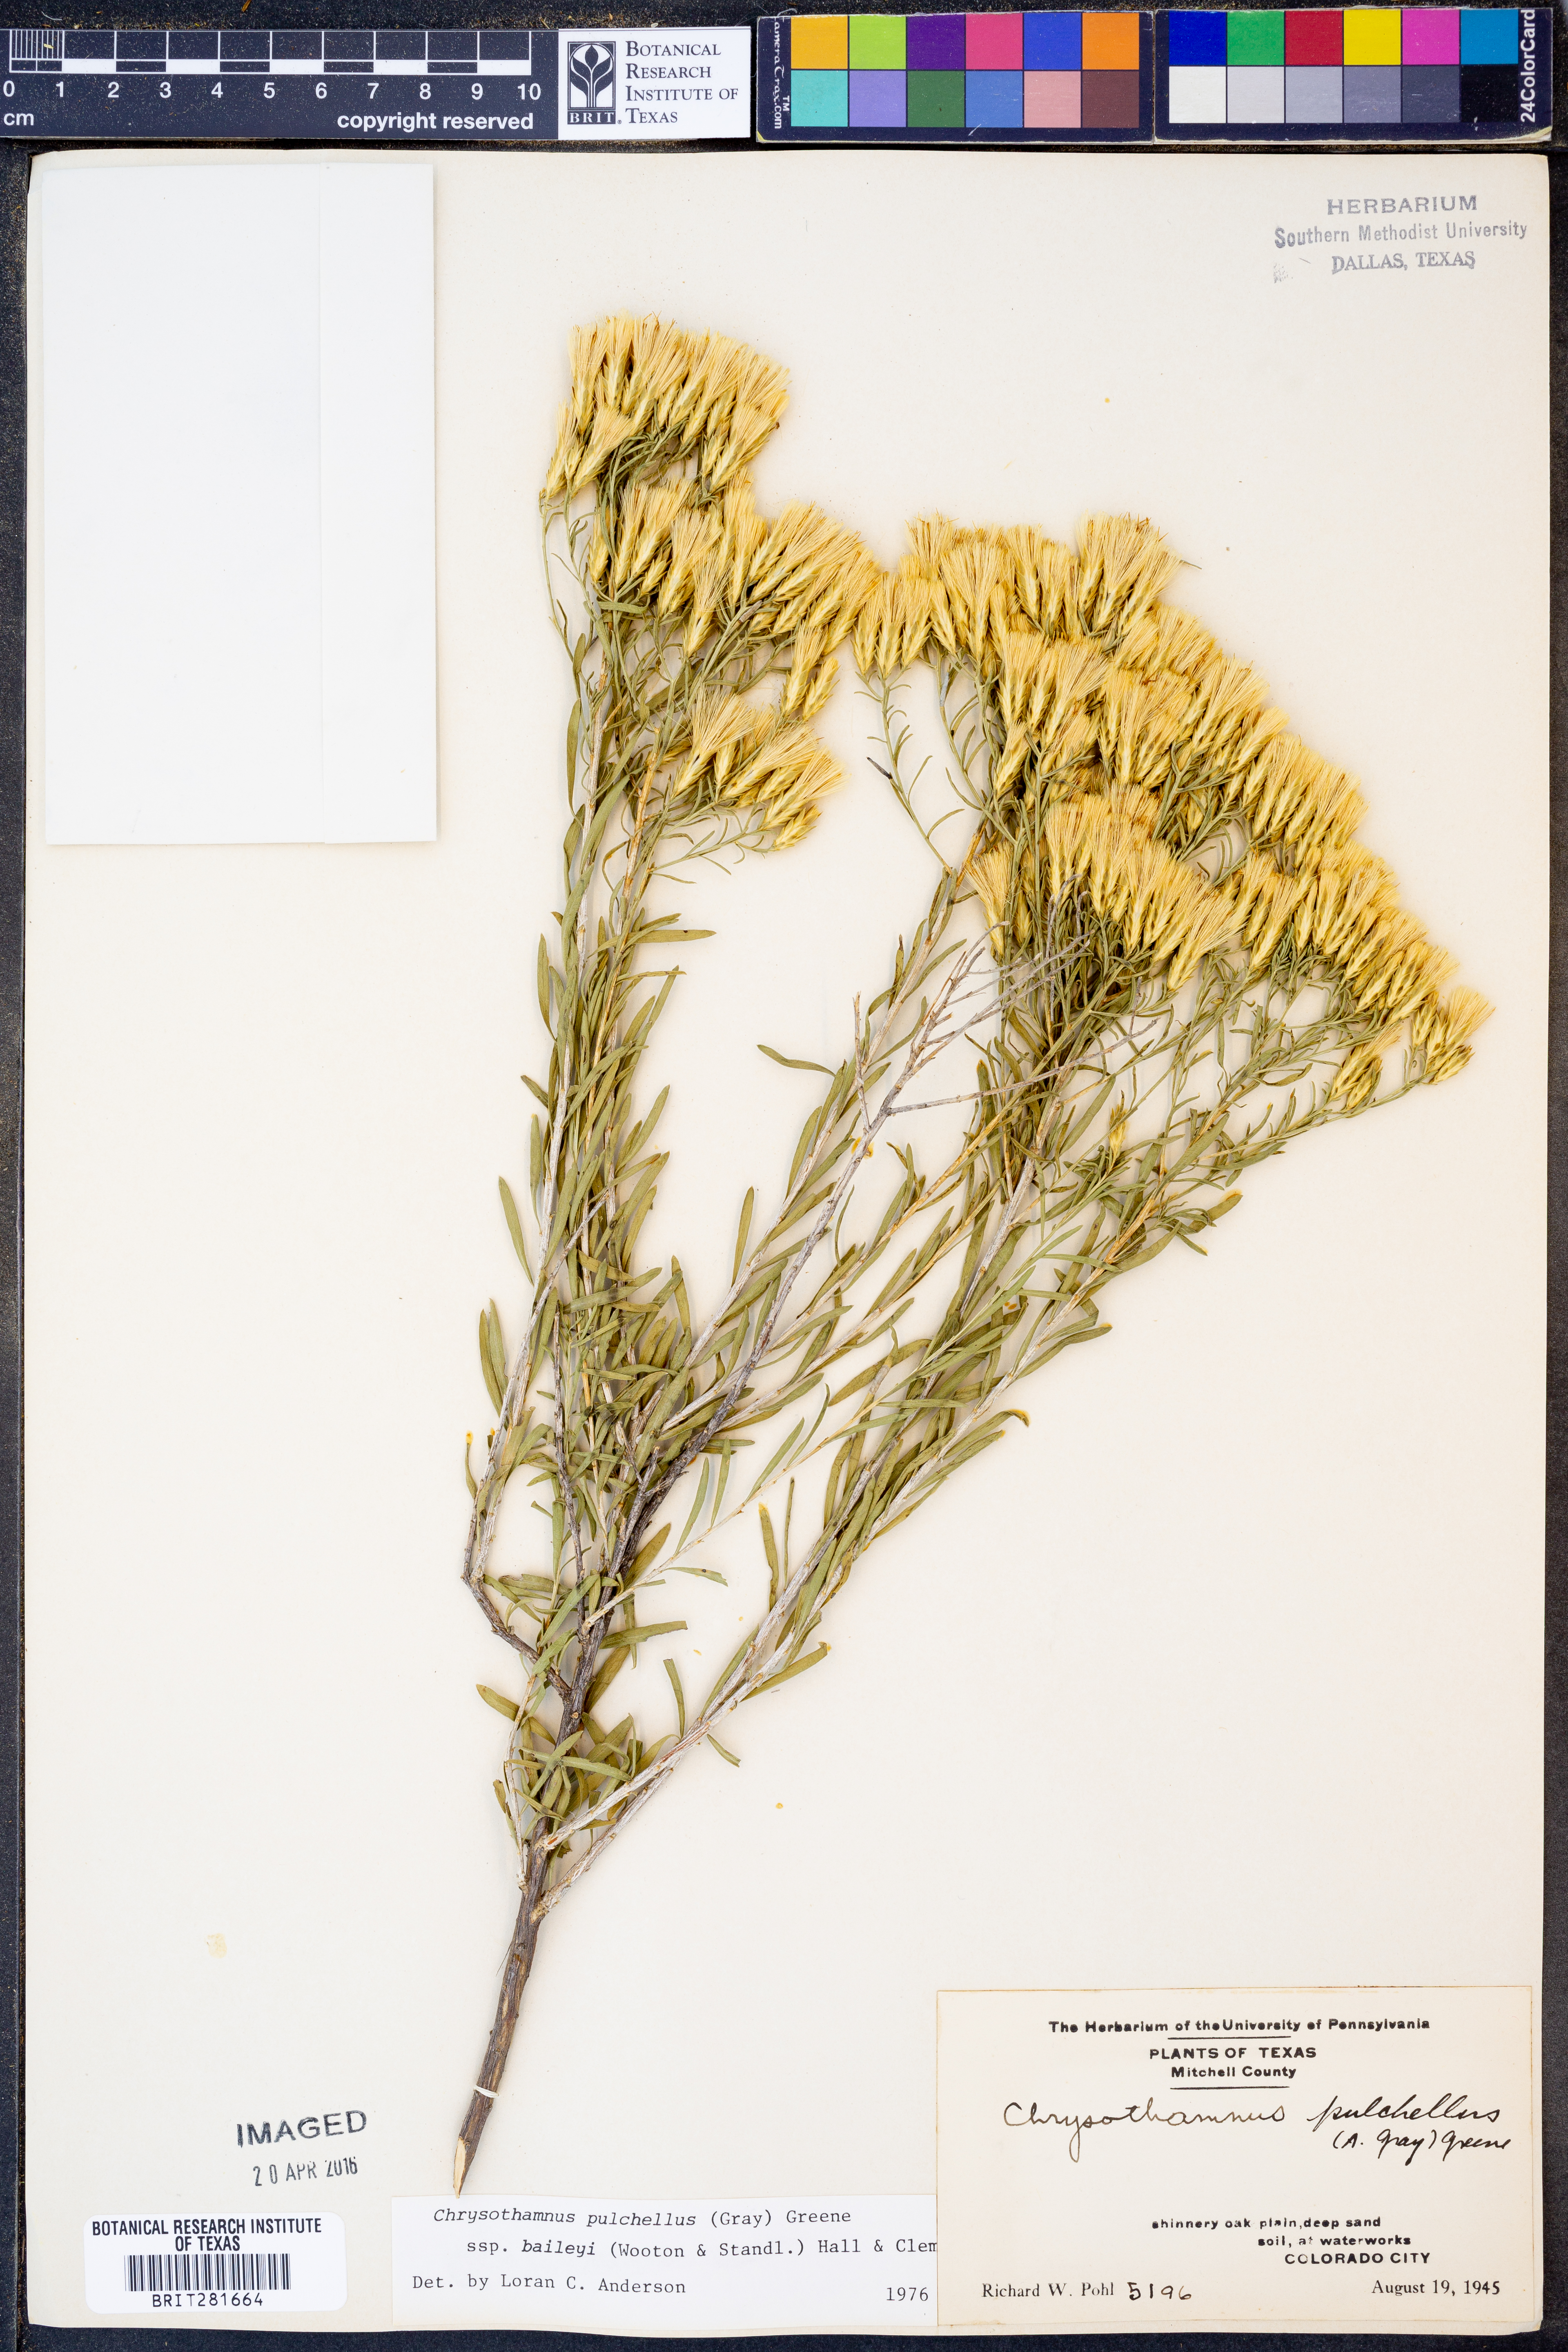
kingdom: Plantae
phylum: Tracheophyta
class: Magnoliopsida
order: Asterales
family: Asteraceae
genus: Lorandersonia
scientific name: Lorandersonia baileyi
